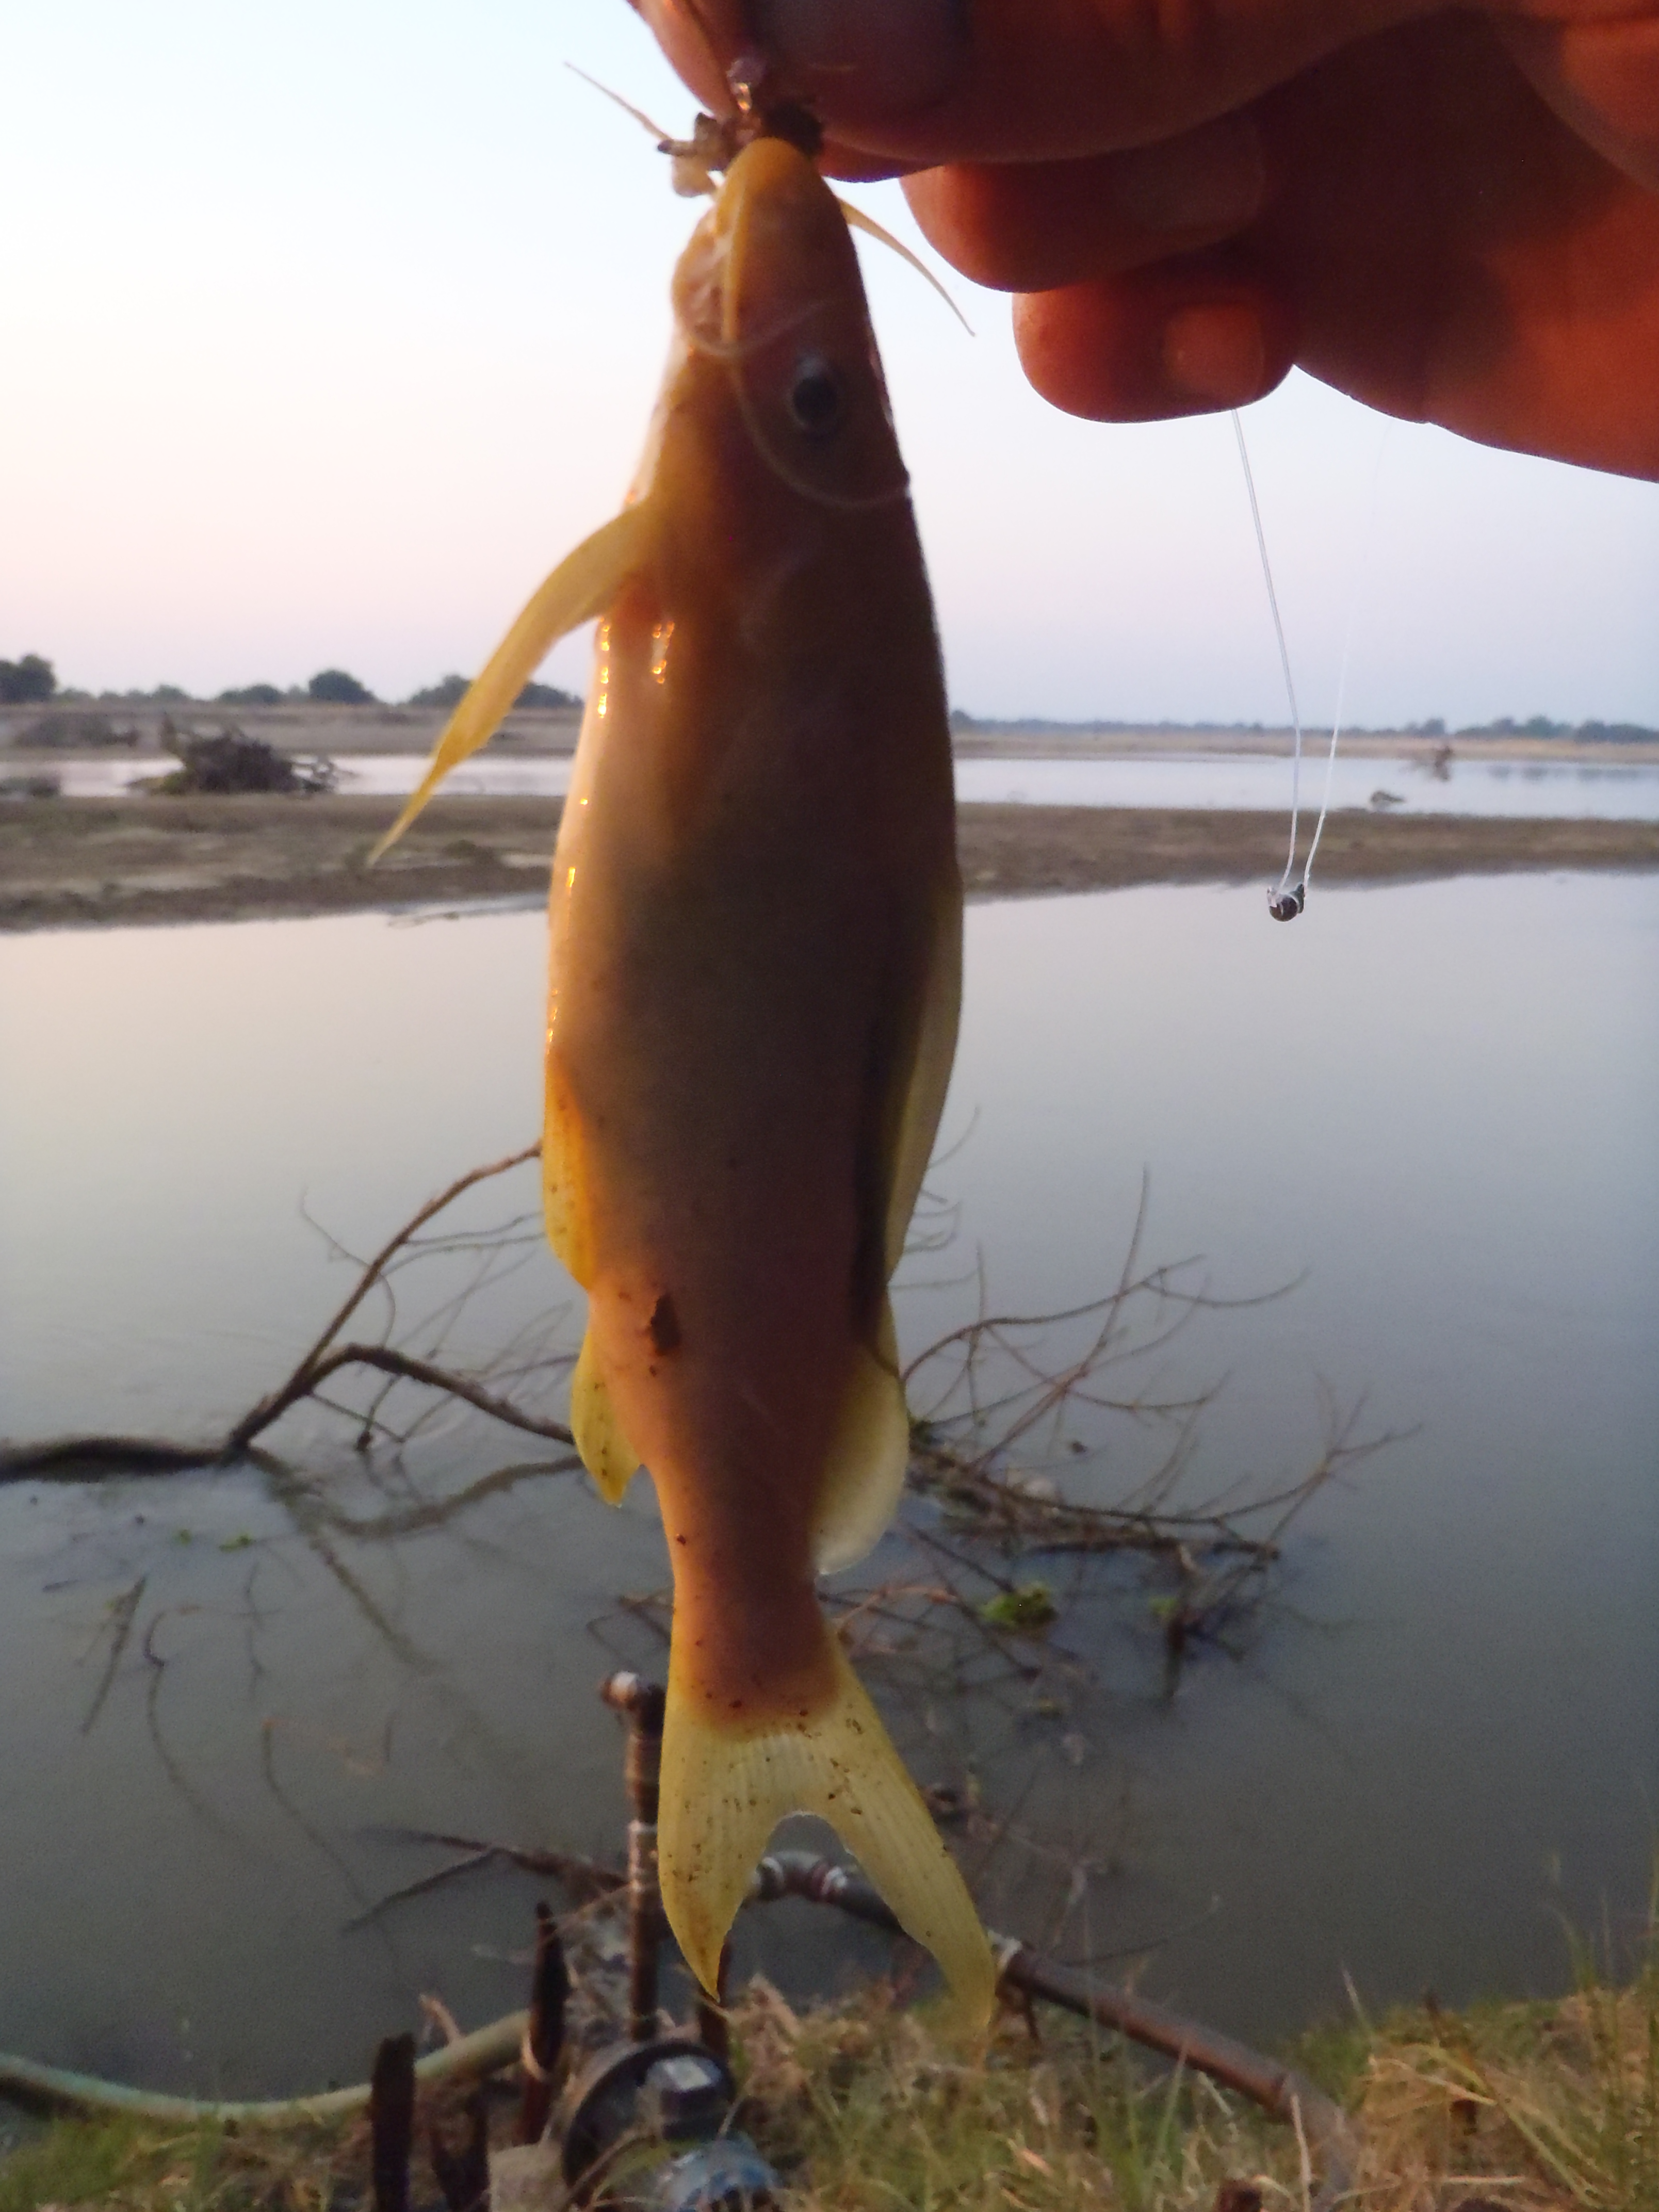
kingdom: Animalia
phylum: Chordata
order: Siluriformes
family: Mochokidae
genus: Synodontis
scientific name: Synodontis zambezensis
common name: Brown squeaker
